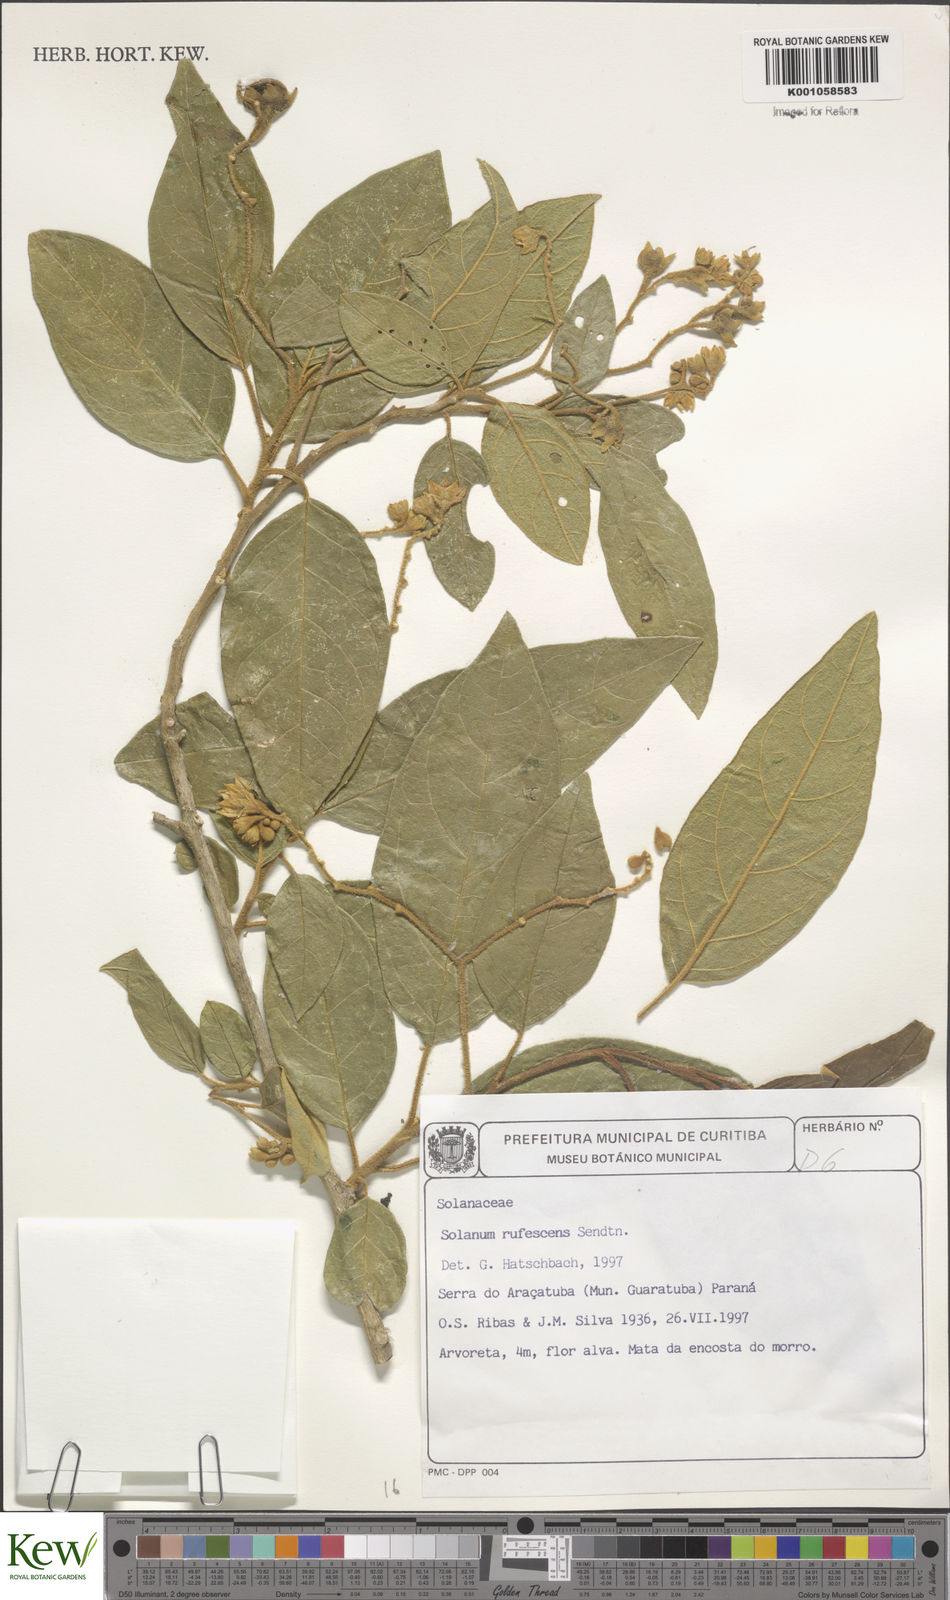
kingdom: Plantae
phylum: Tracheophyta
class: Magnoliopsida
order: Solanales
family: Solanaceae
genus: Solanum
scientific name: Solanum rufescens
